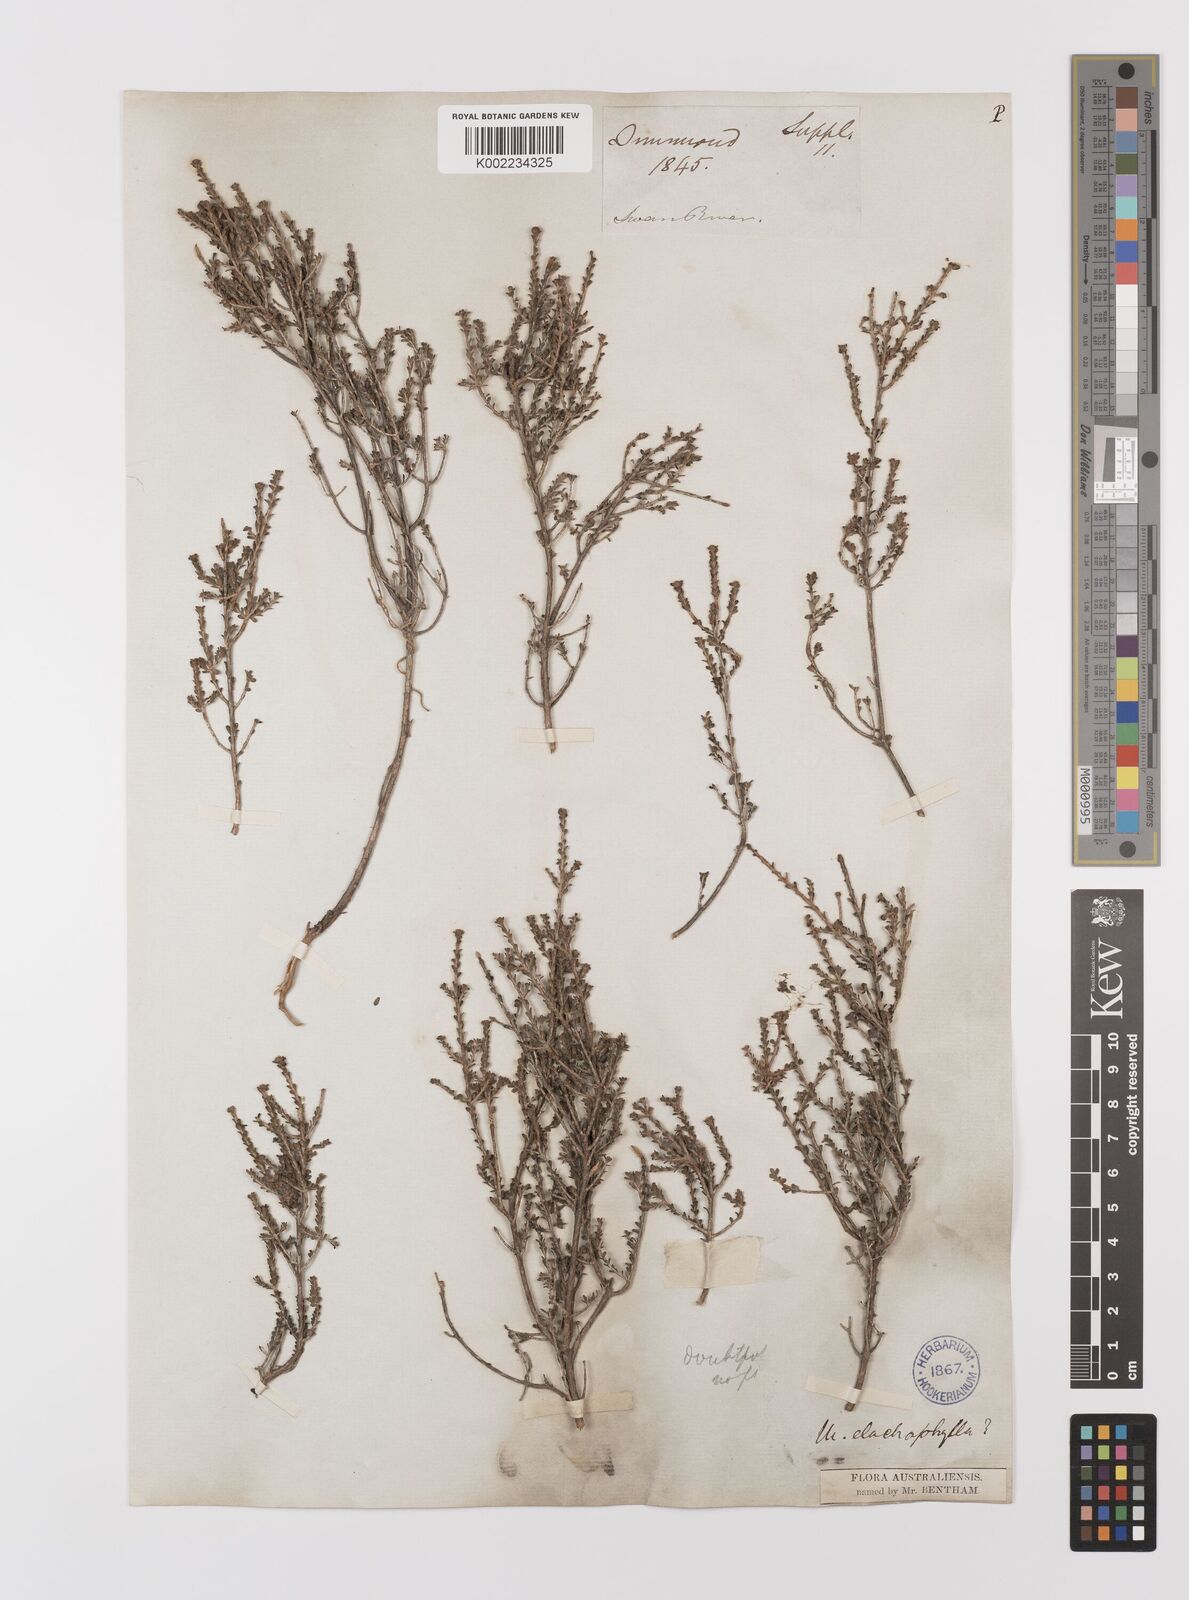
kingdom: Plantae
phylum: Tracheophyta
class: Magnoliopsida
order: Myrtales
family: Myrtaceae
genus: Melaleuca
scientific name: Melaleuca depauperata
